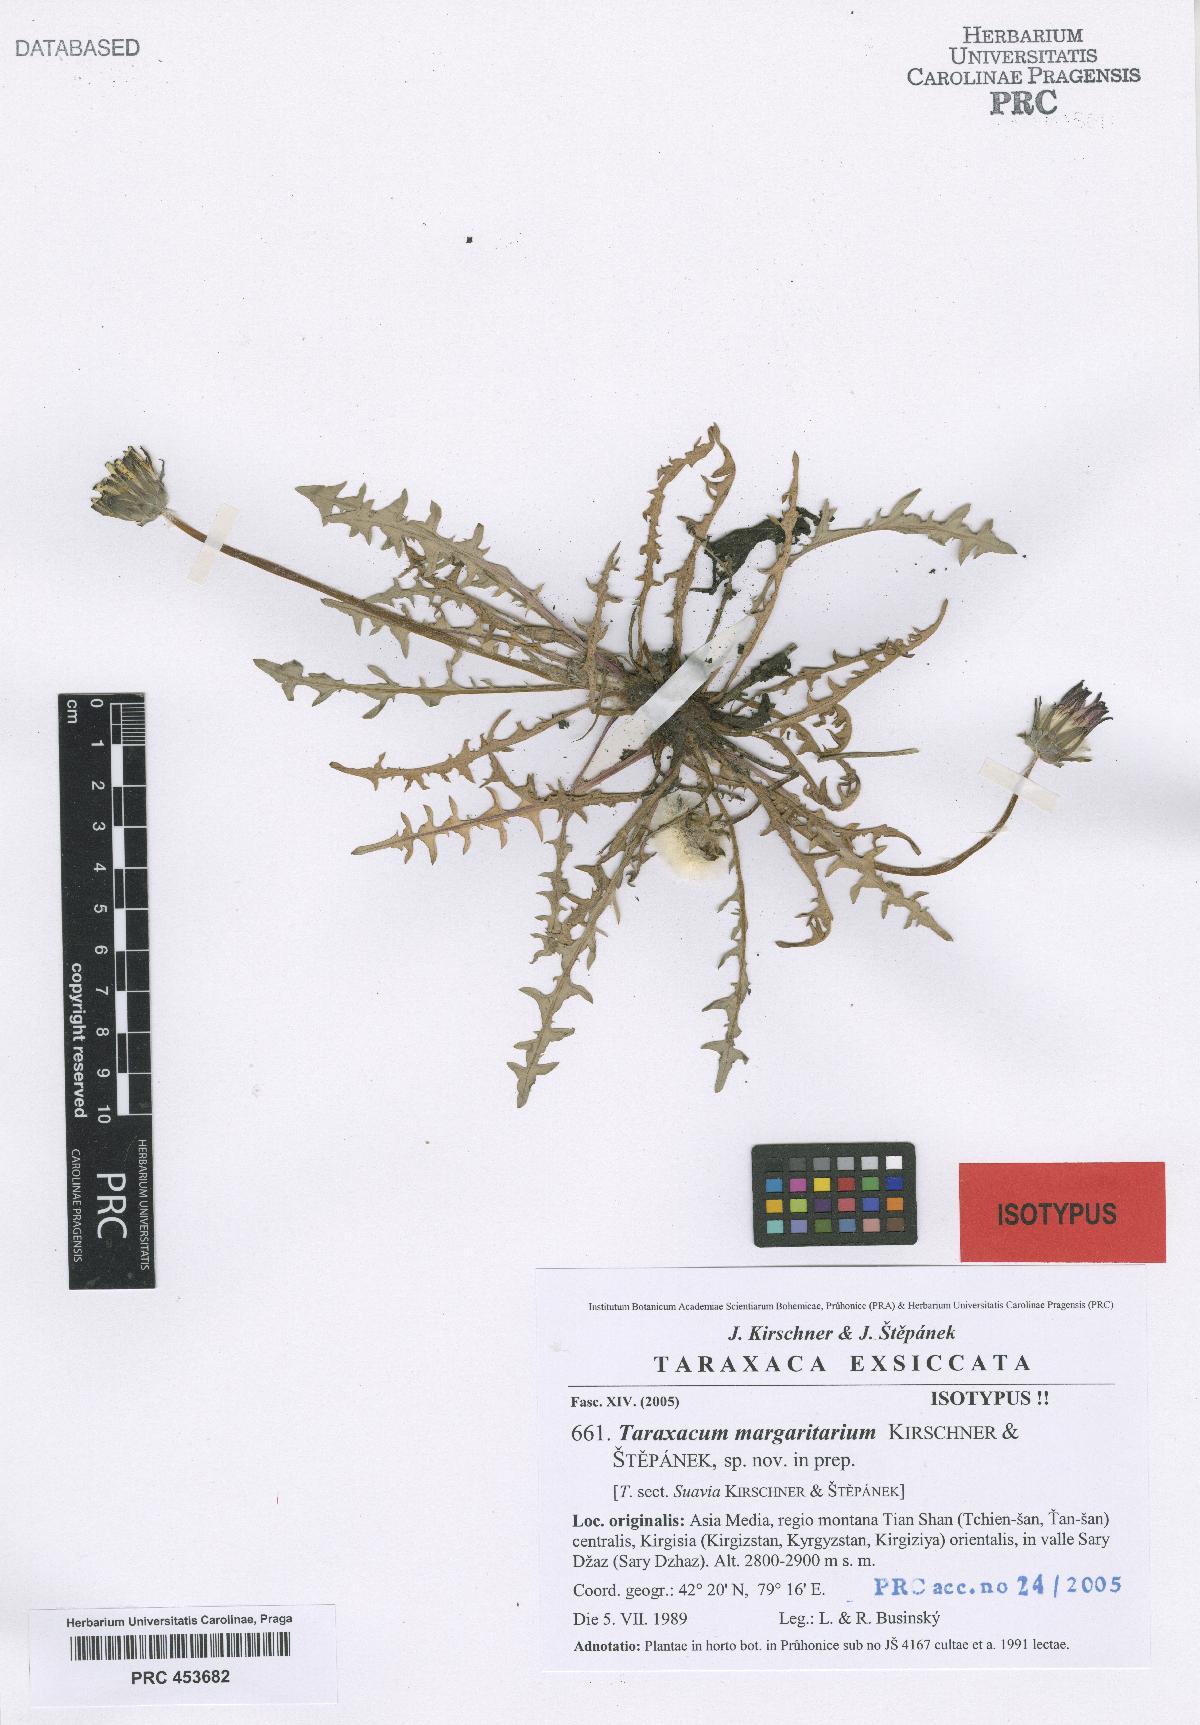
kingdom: Plantae
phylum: Tracheophyta
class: Magnoliopsida
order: Asterales
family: Asteraceae
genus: Taraxacum
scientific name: Taraxacum margaritarium
